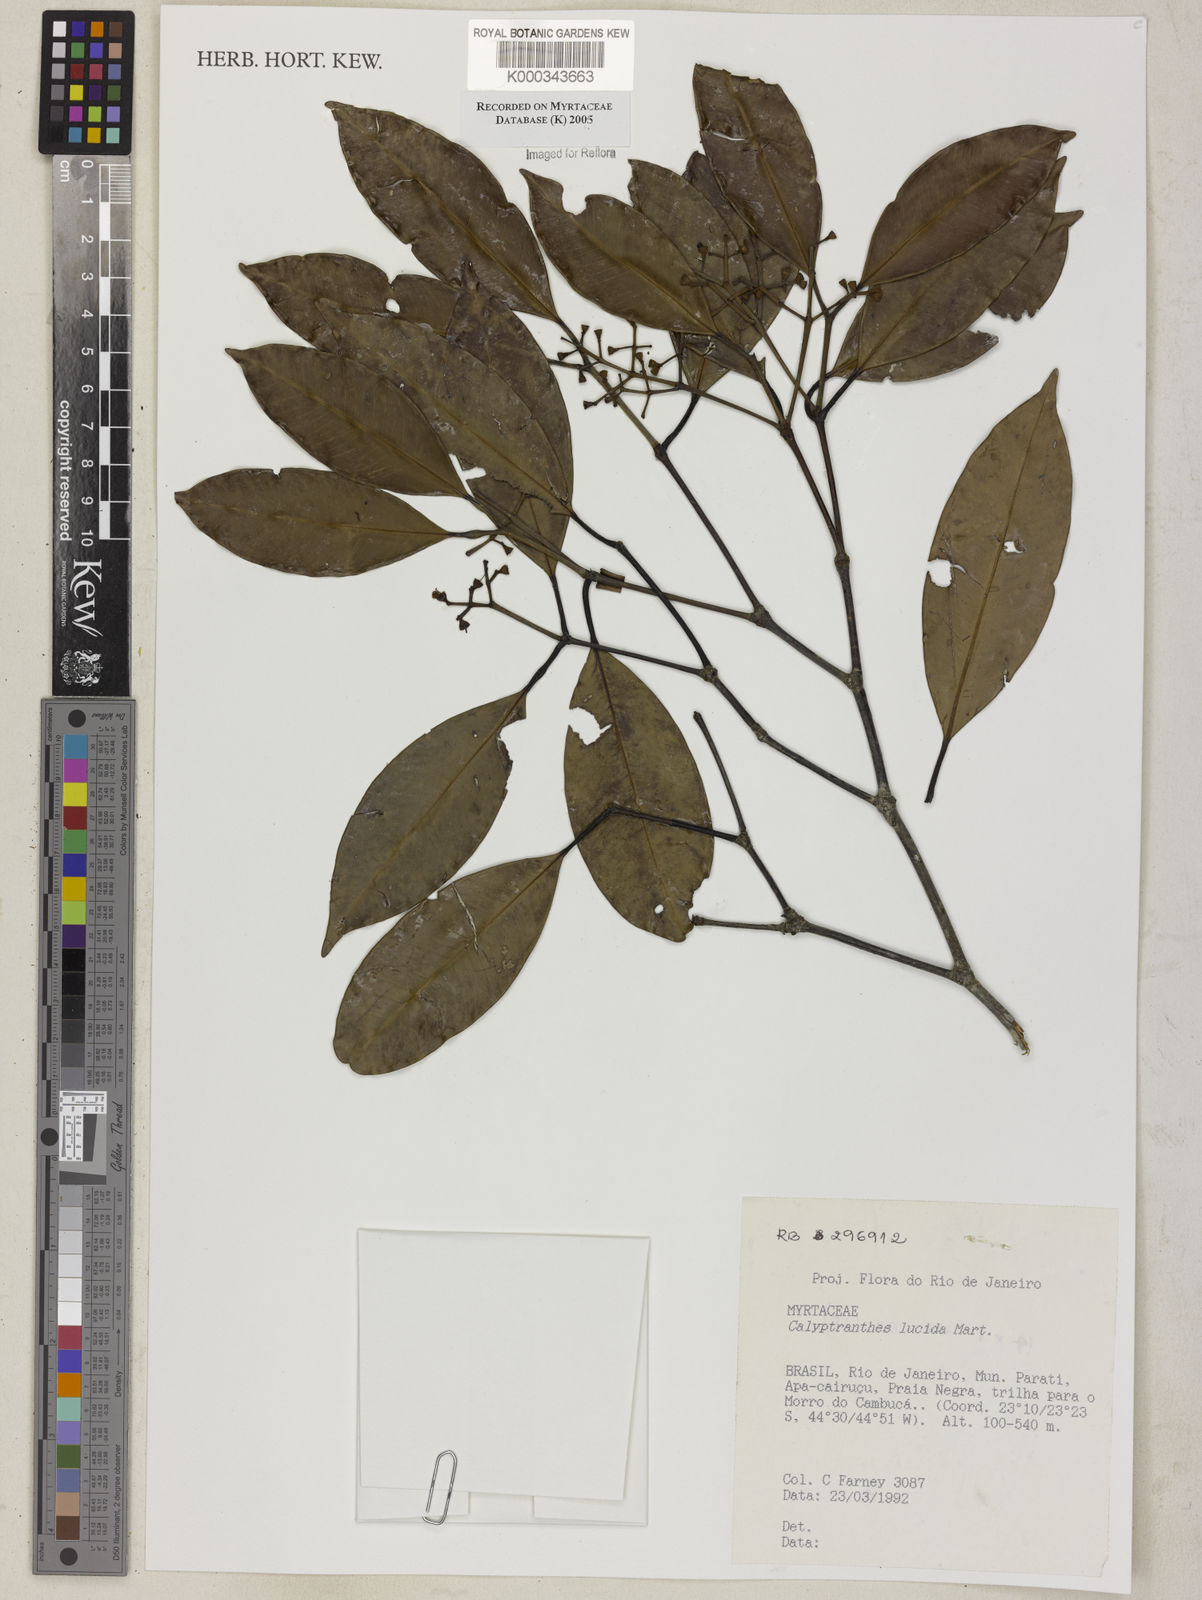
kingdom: Plantae
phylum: Tracheophyta
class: Magnoliopsida
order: Myrtales
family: Myrtaceae
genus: Myrcia
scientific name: Myrcia neolucida
